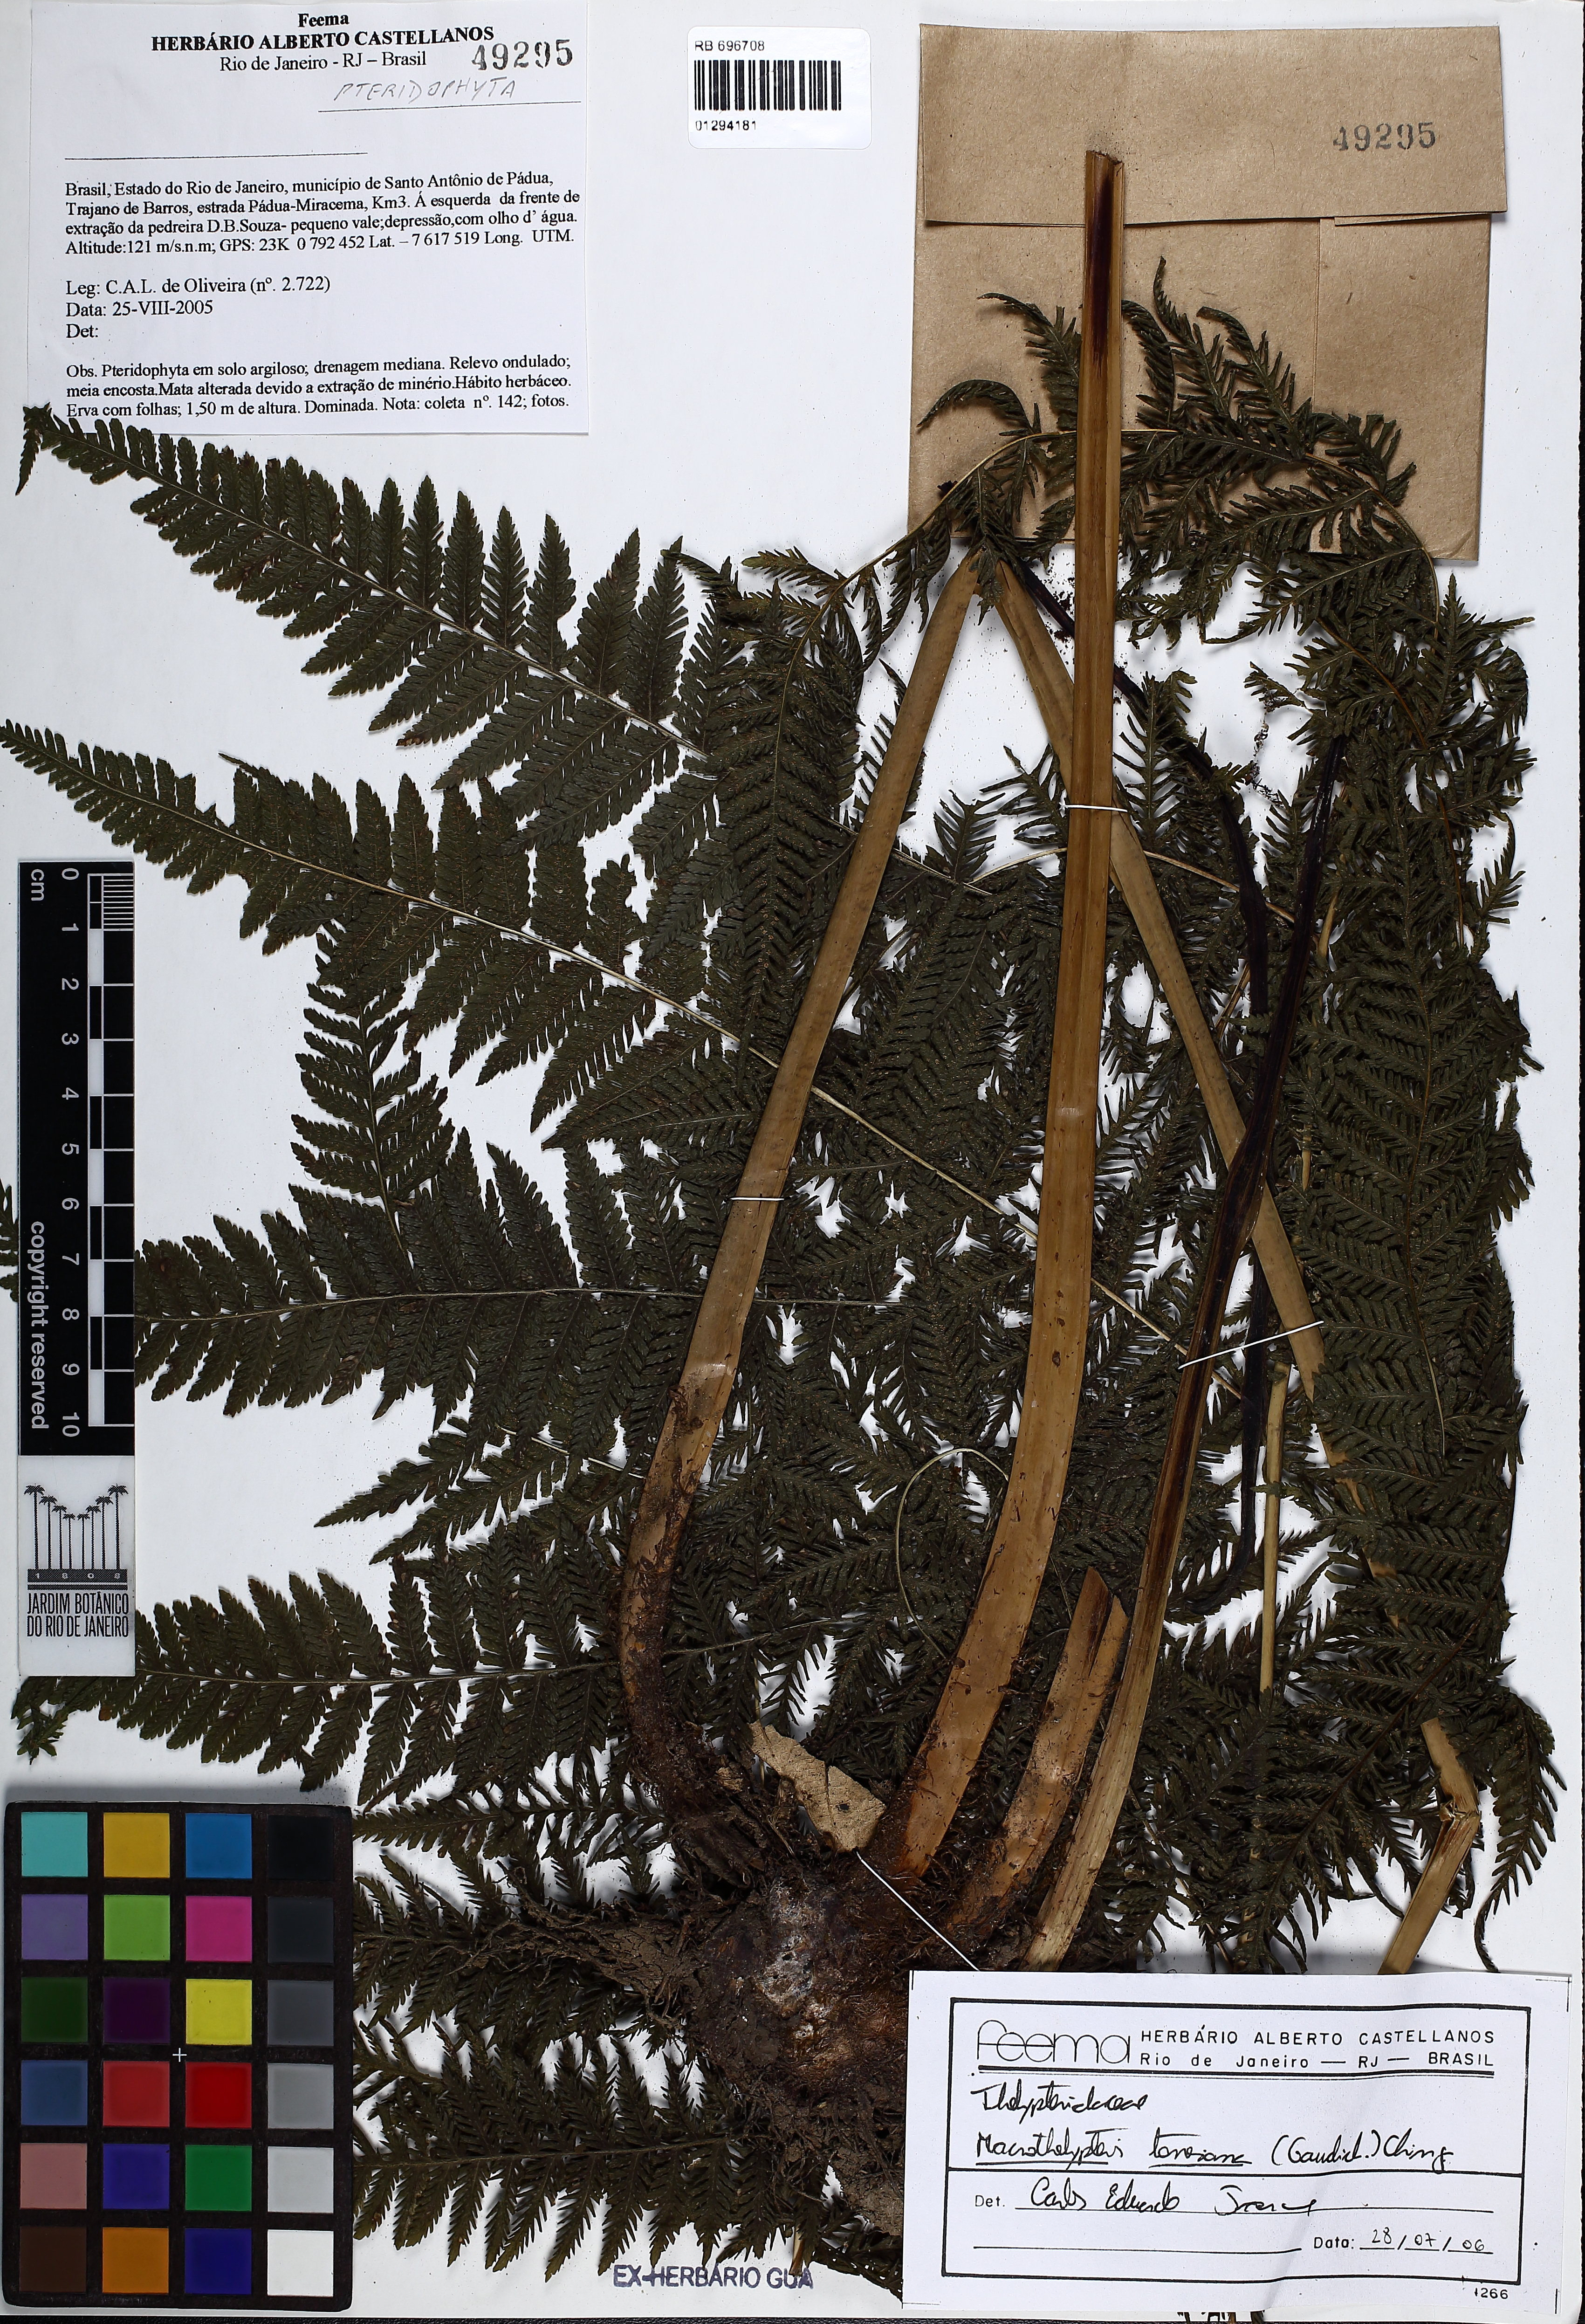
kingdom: Plantae
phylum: Tracheophyta
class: Polypodiopsida
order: Polypodiales
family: Thelypteridaceae
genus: Macrothelypteris
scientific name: Macrothelypteris torresiana
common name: Swordfern
